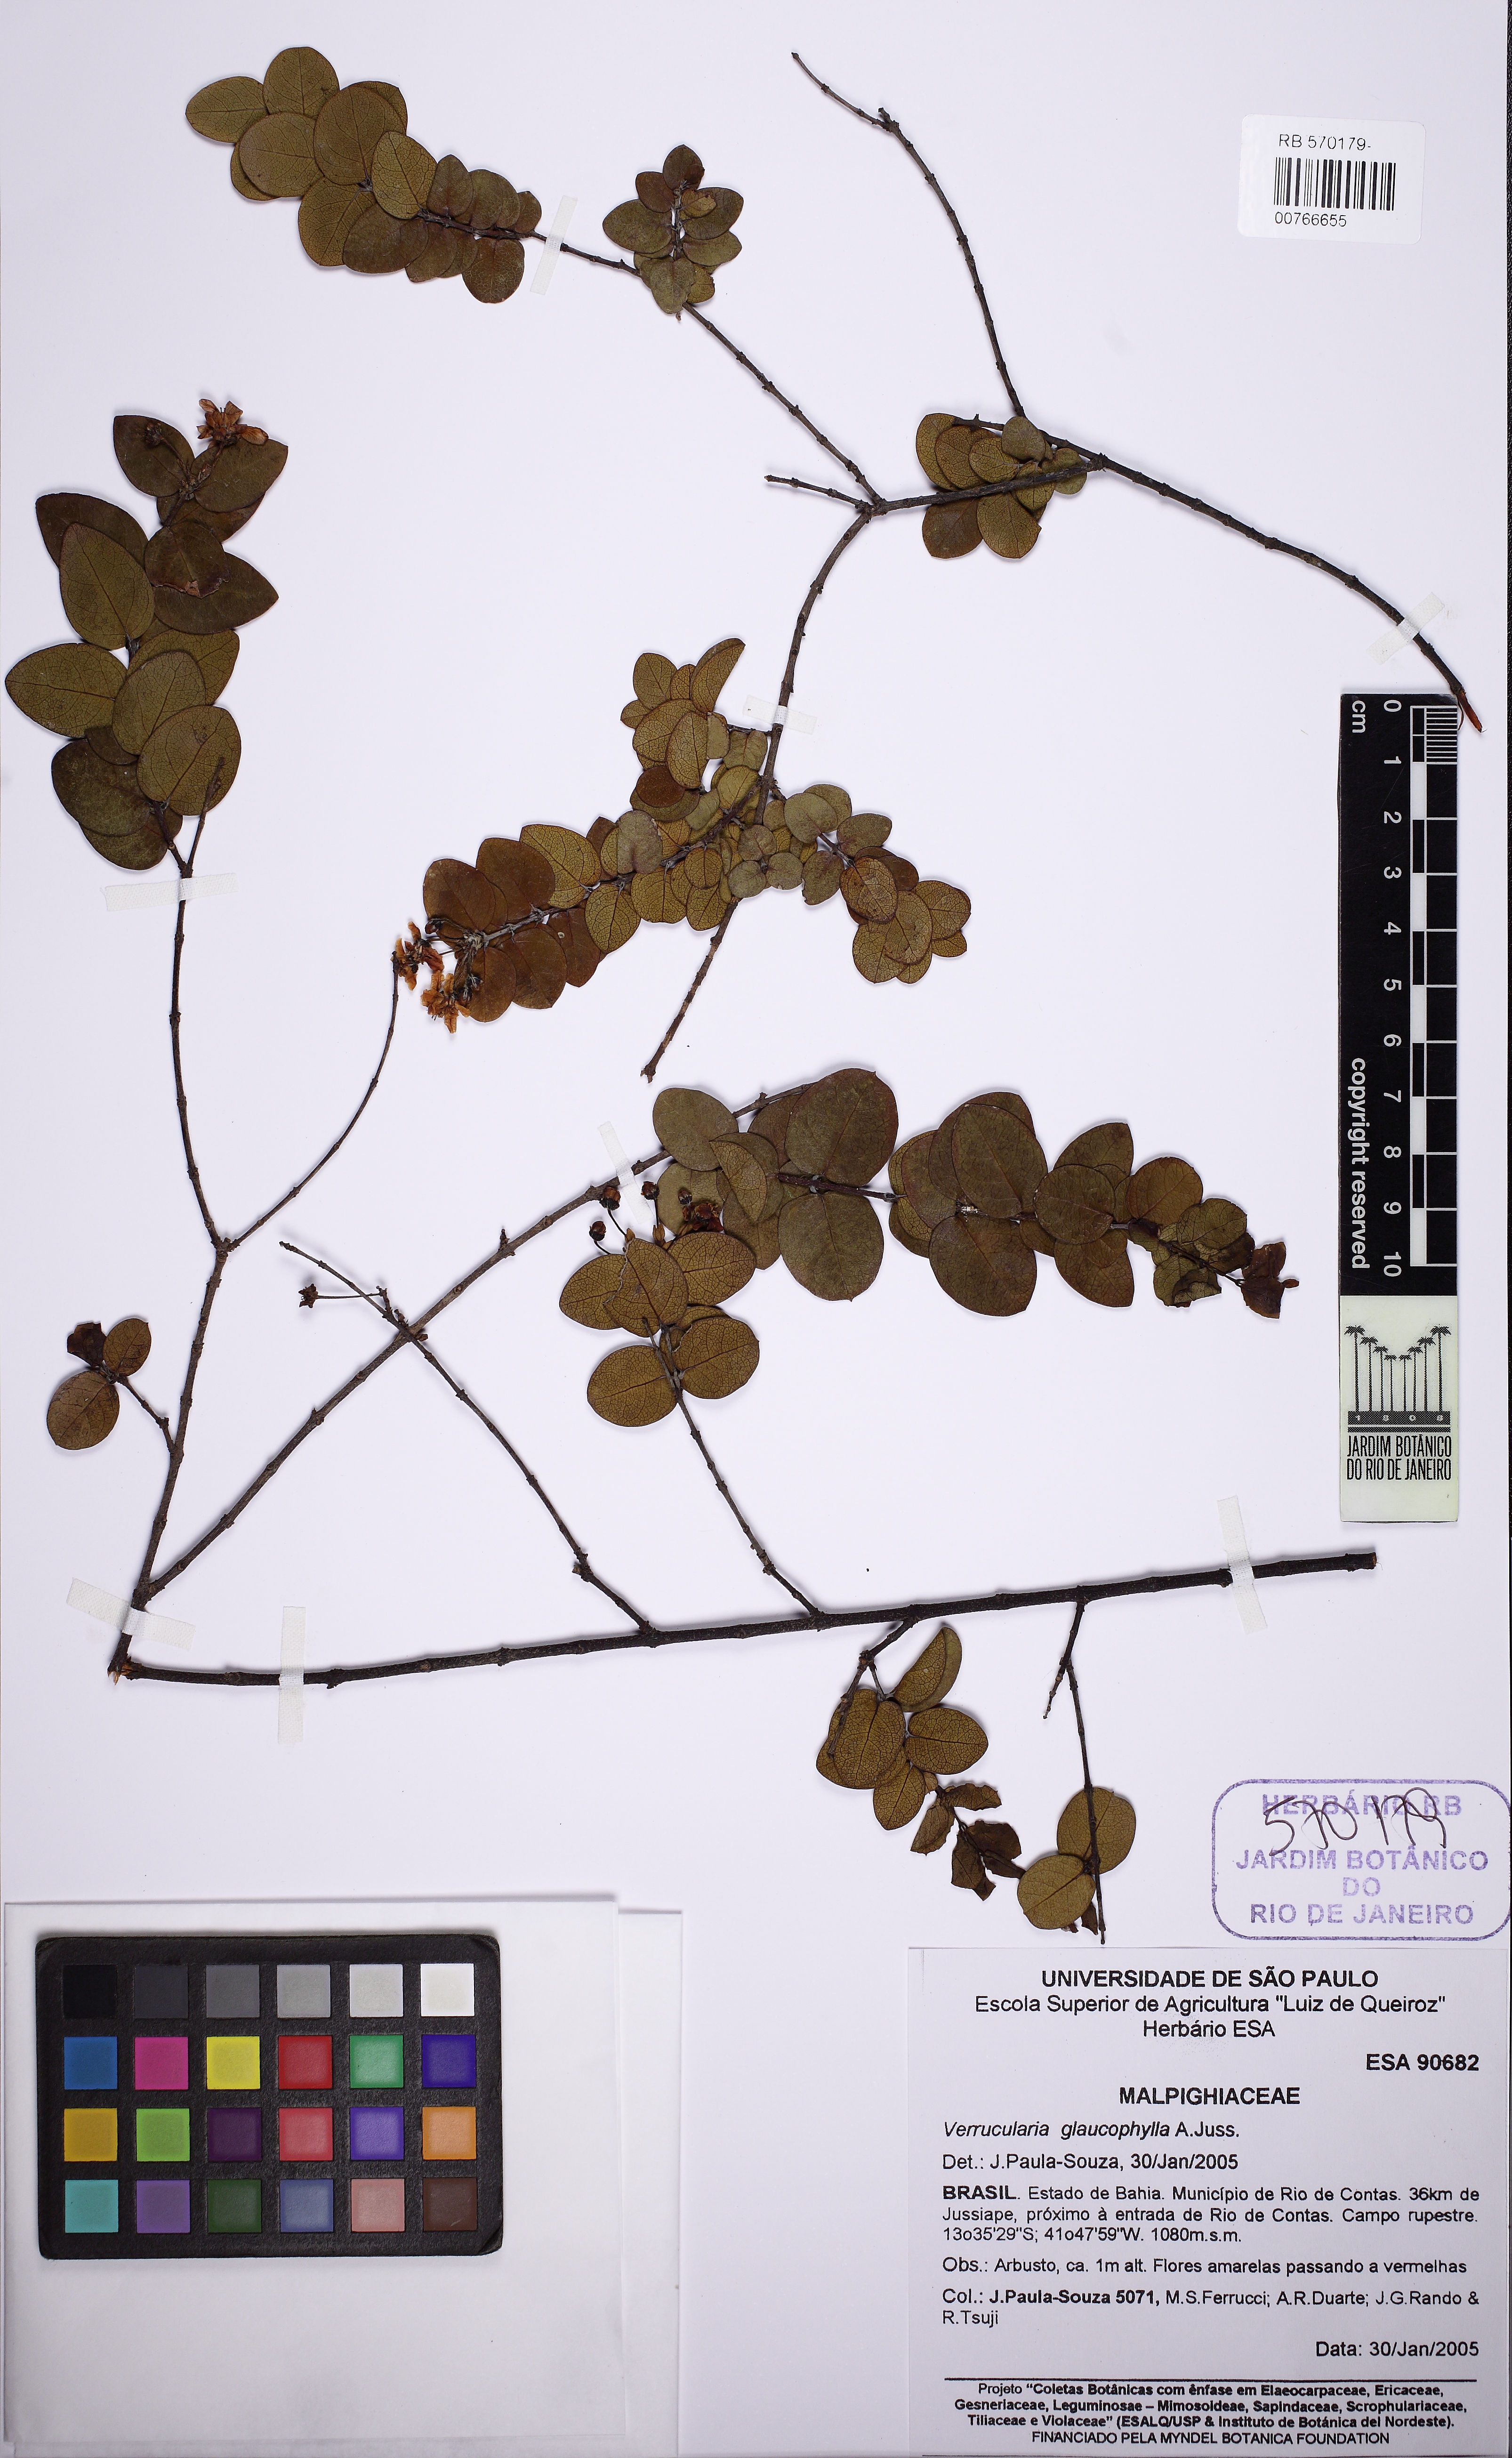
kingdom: Plantae
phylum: Tracheophyta
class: Magnoliopsida
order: Malpighiales
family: Malpighiaceae
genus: Verrucularina
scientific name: Verrucularina glaucophylla
